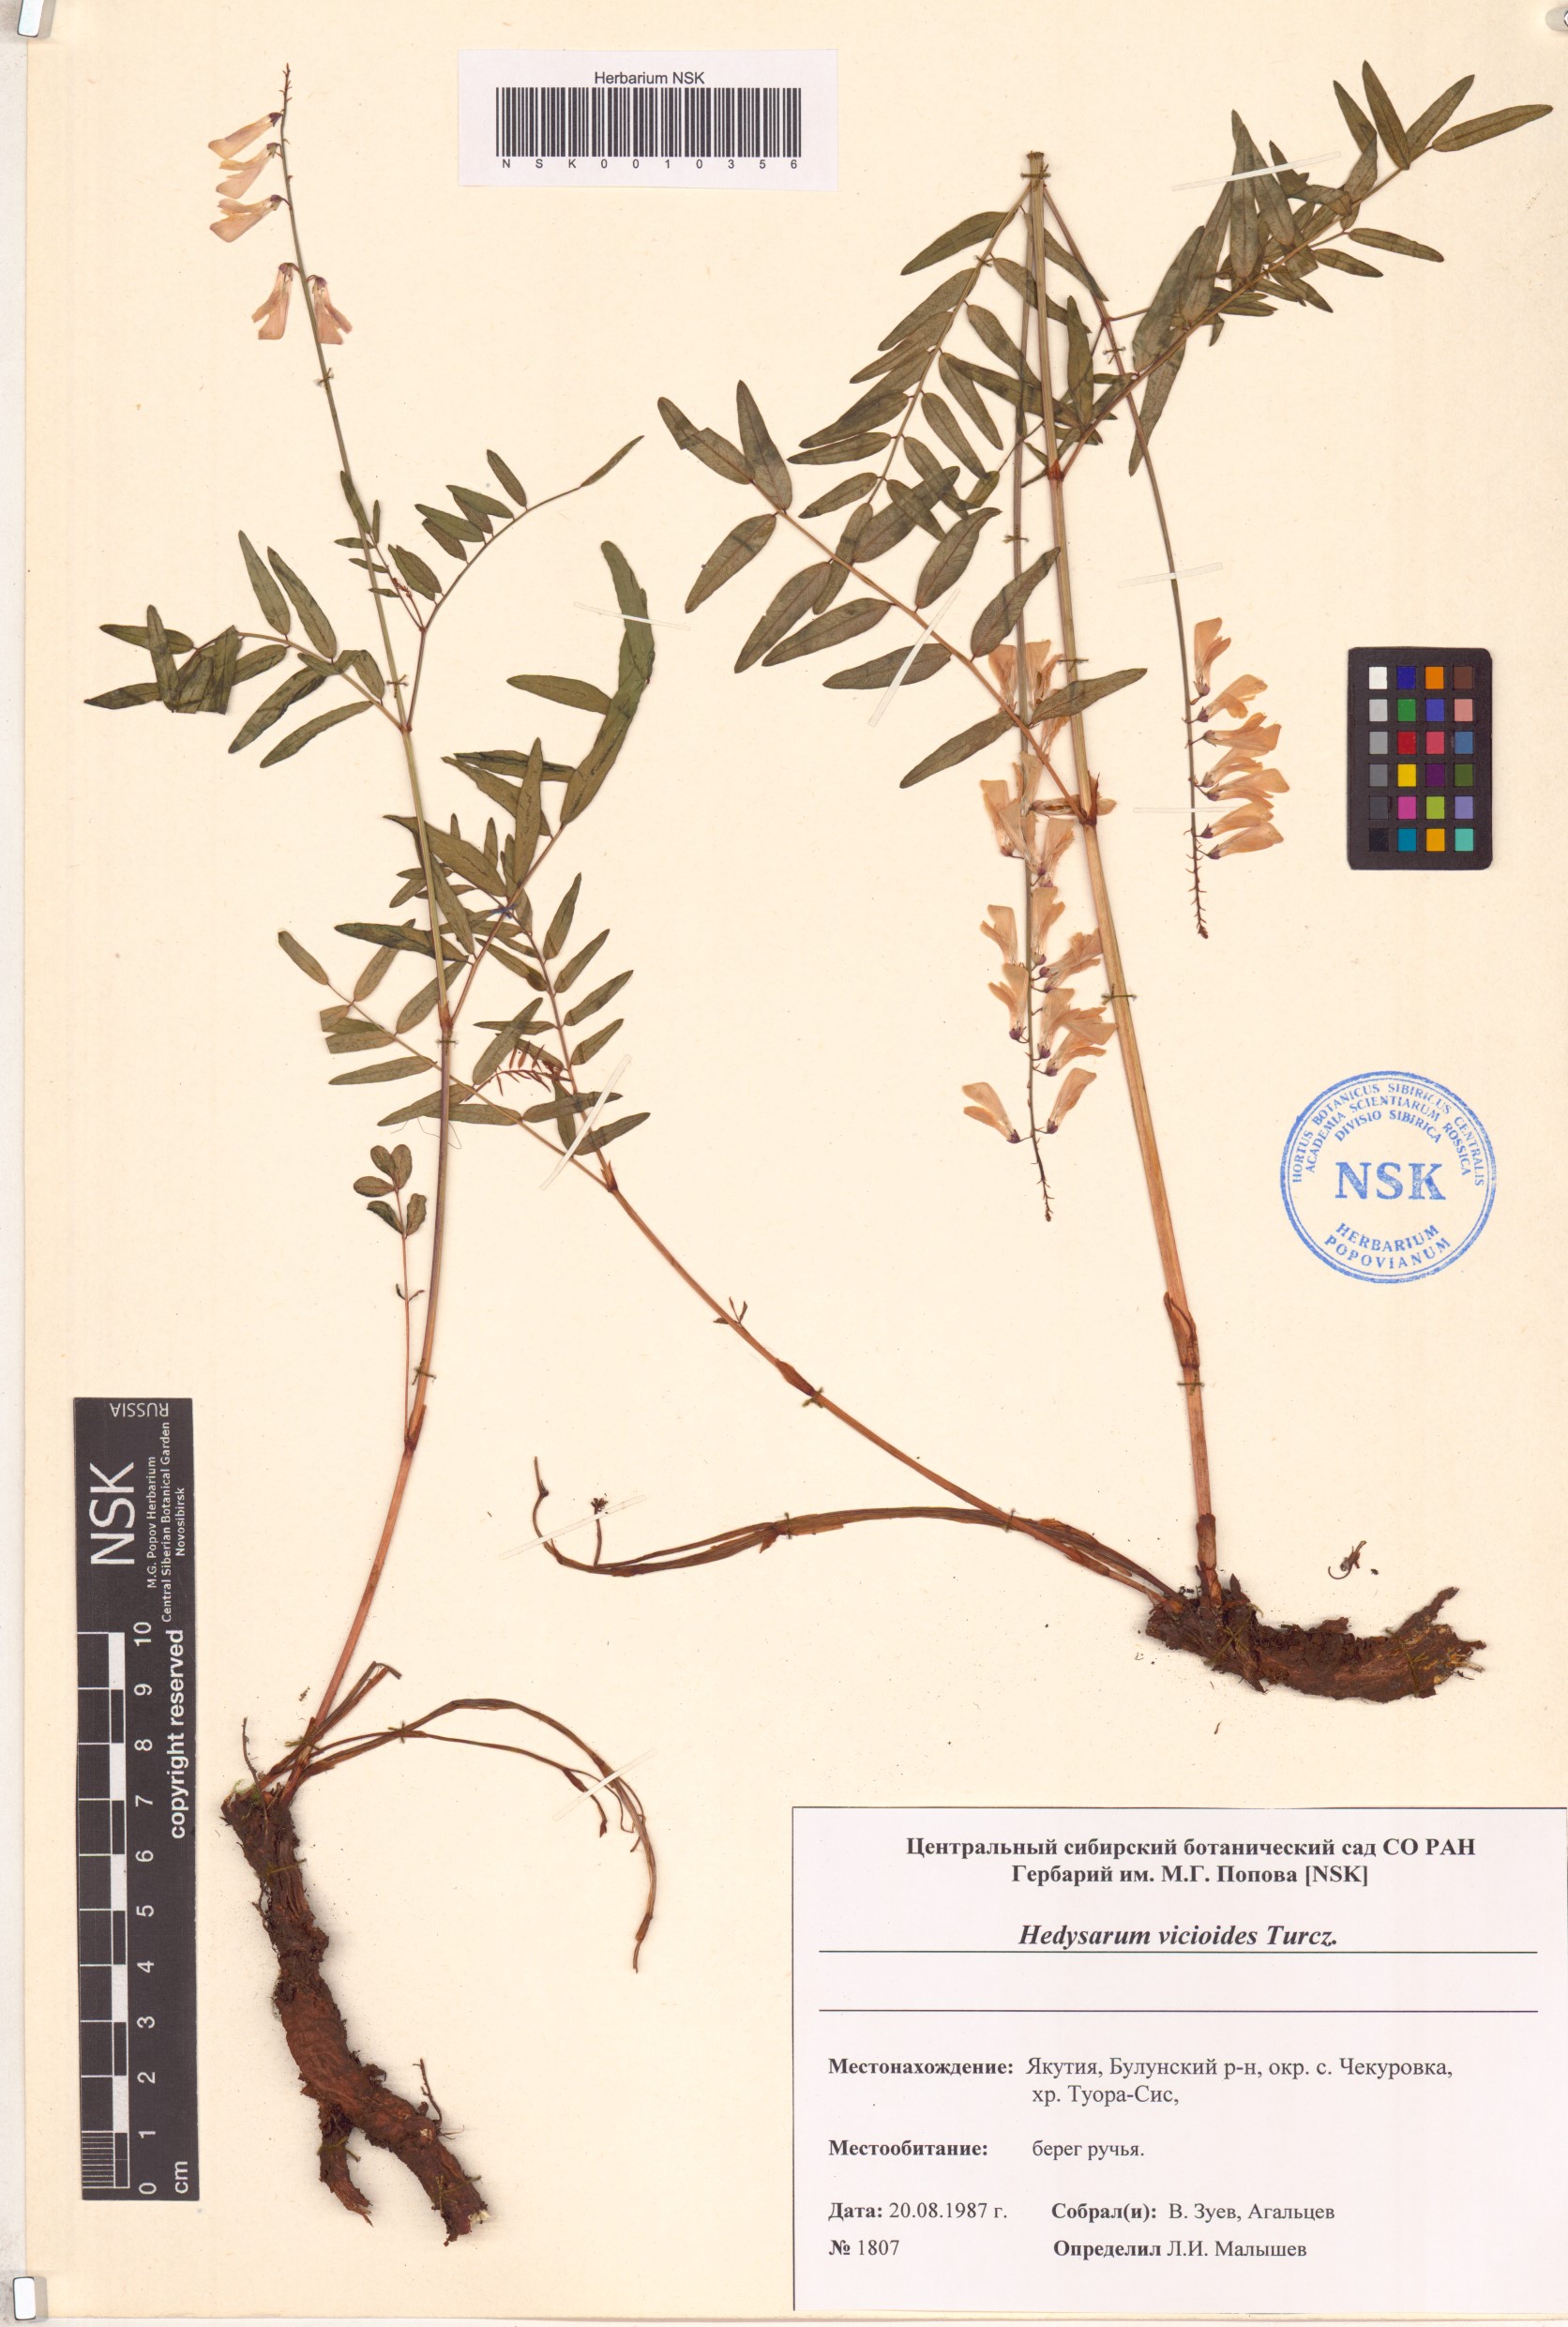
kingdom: Plantae
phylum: Tracheophyta
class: Magnoliopsida
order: Fabales
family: Fabaceae
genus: Hedysarum
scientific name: Hedysarum vicioides
